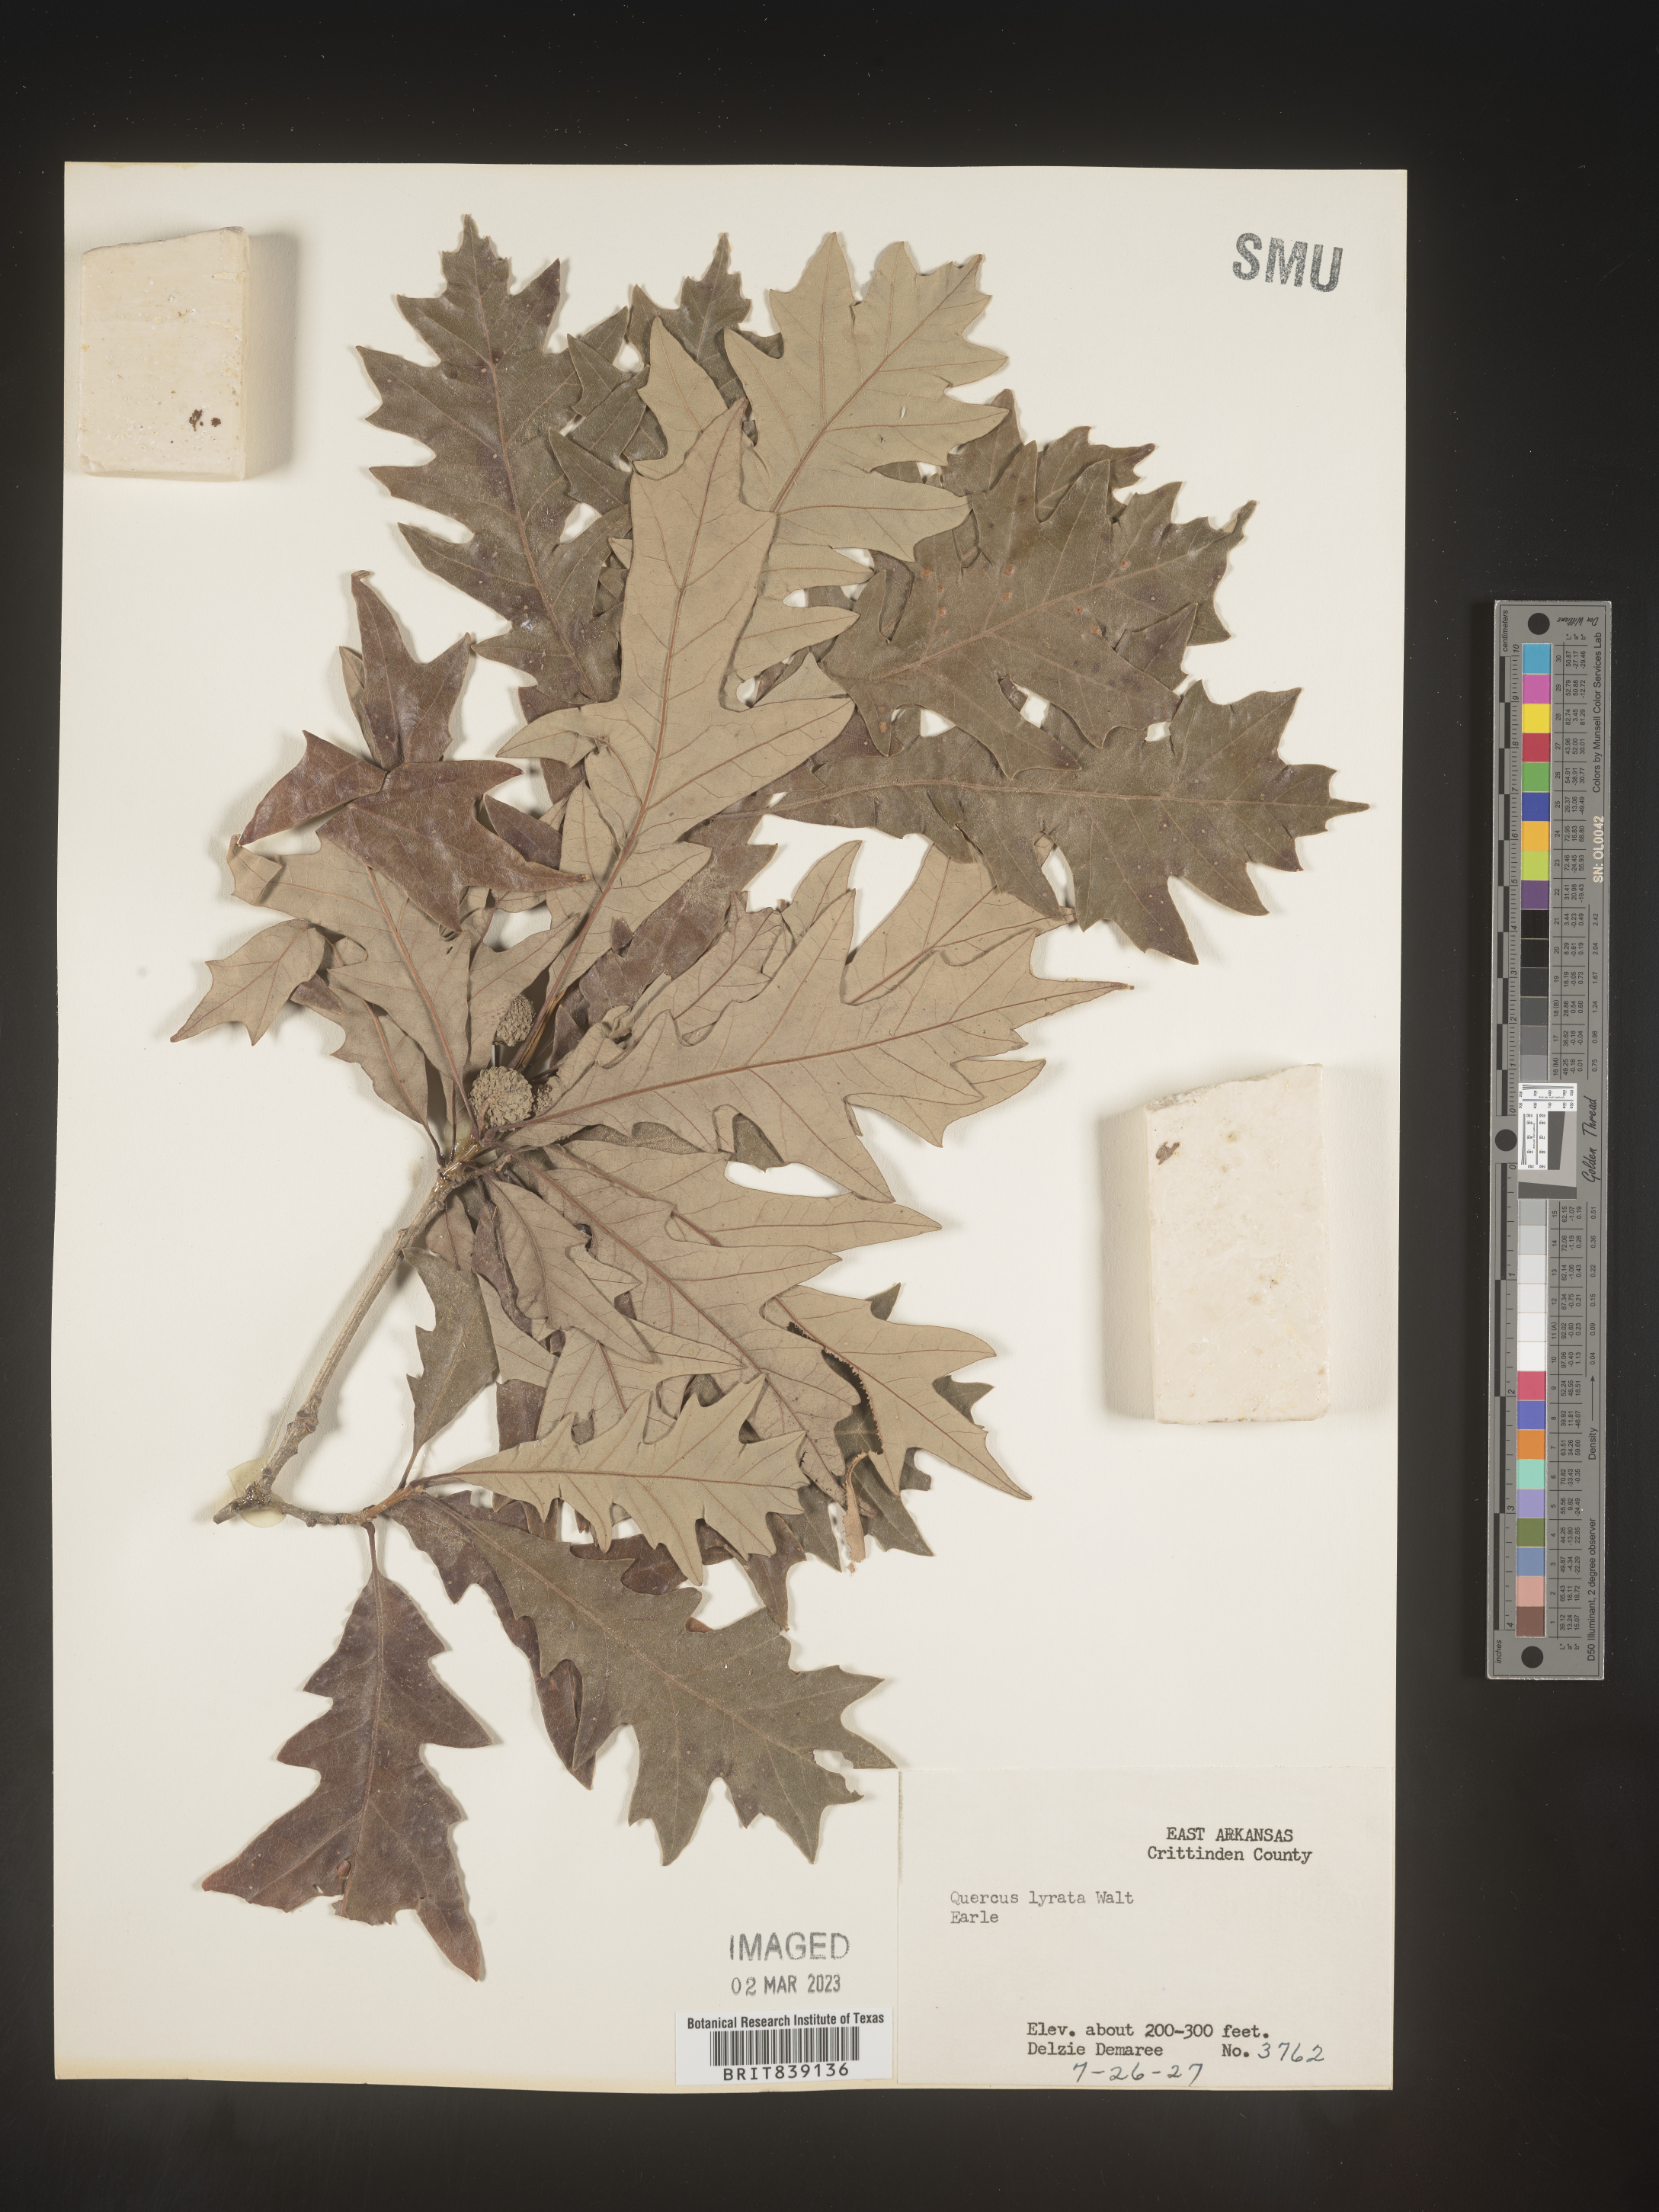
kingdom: Plantae
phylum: Tracheophyta
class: Magnoliopsida
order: Fagales
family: Fagaceae
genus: Quercus
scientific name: Quercus lyrata
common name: Overcup oak
